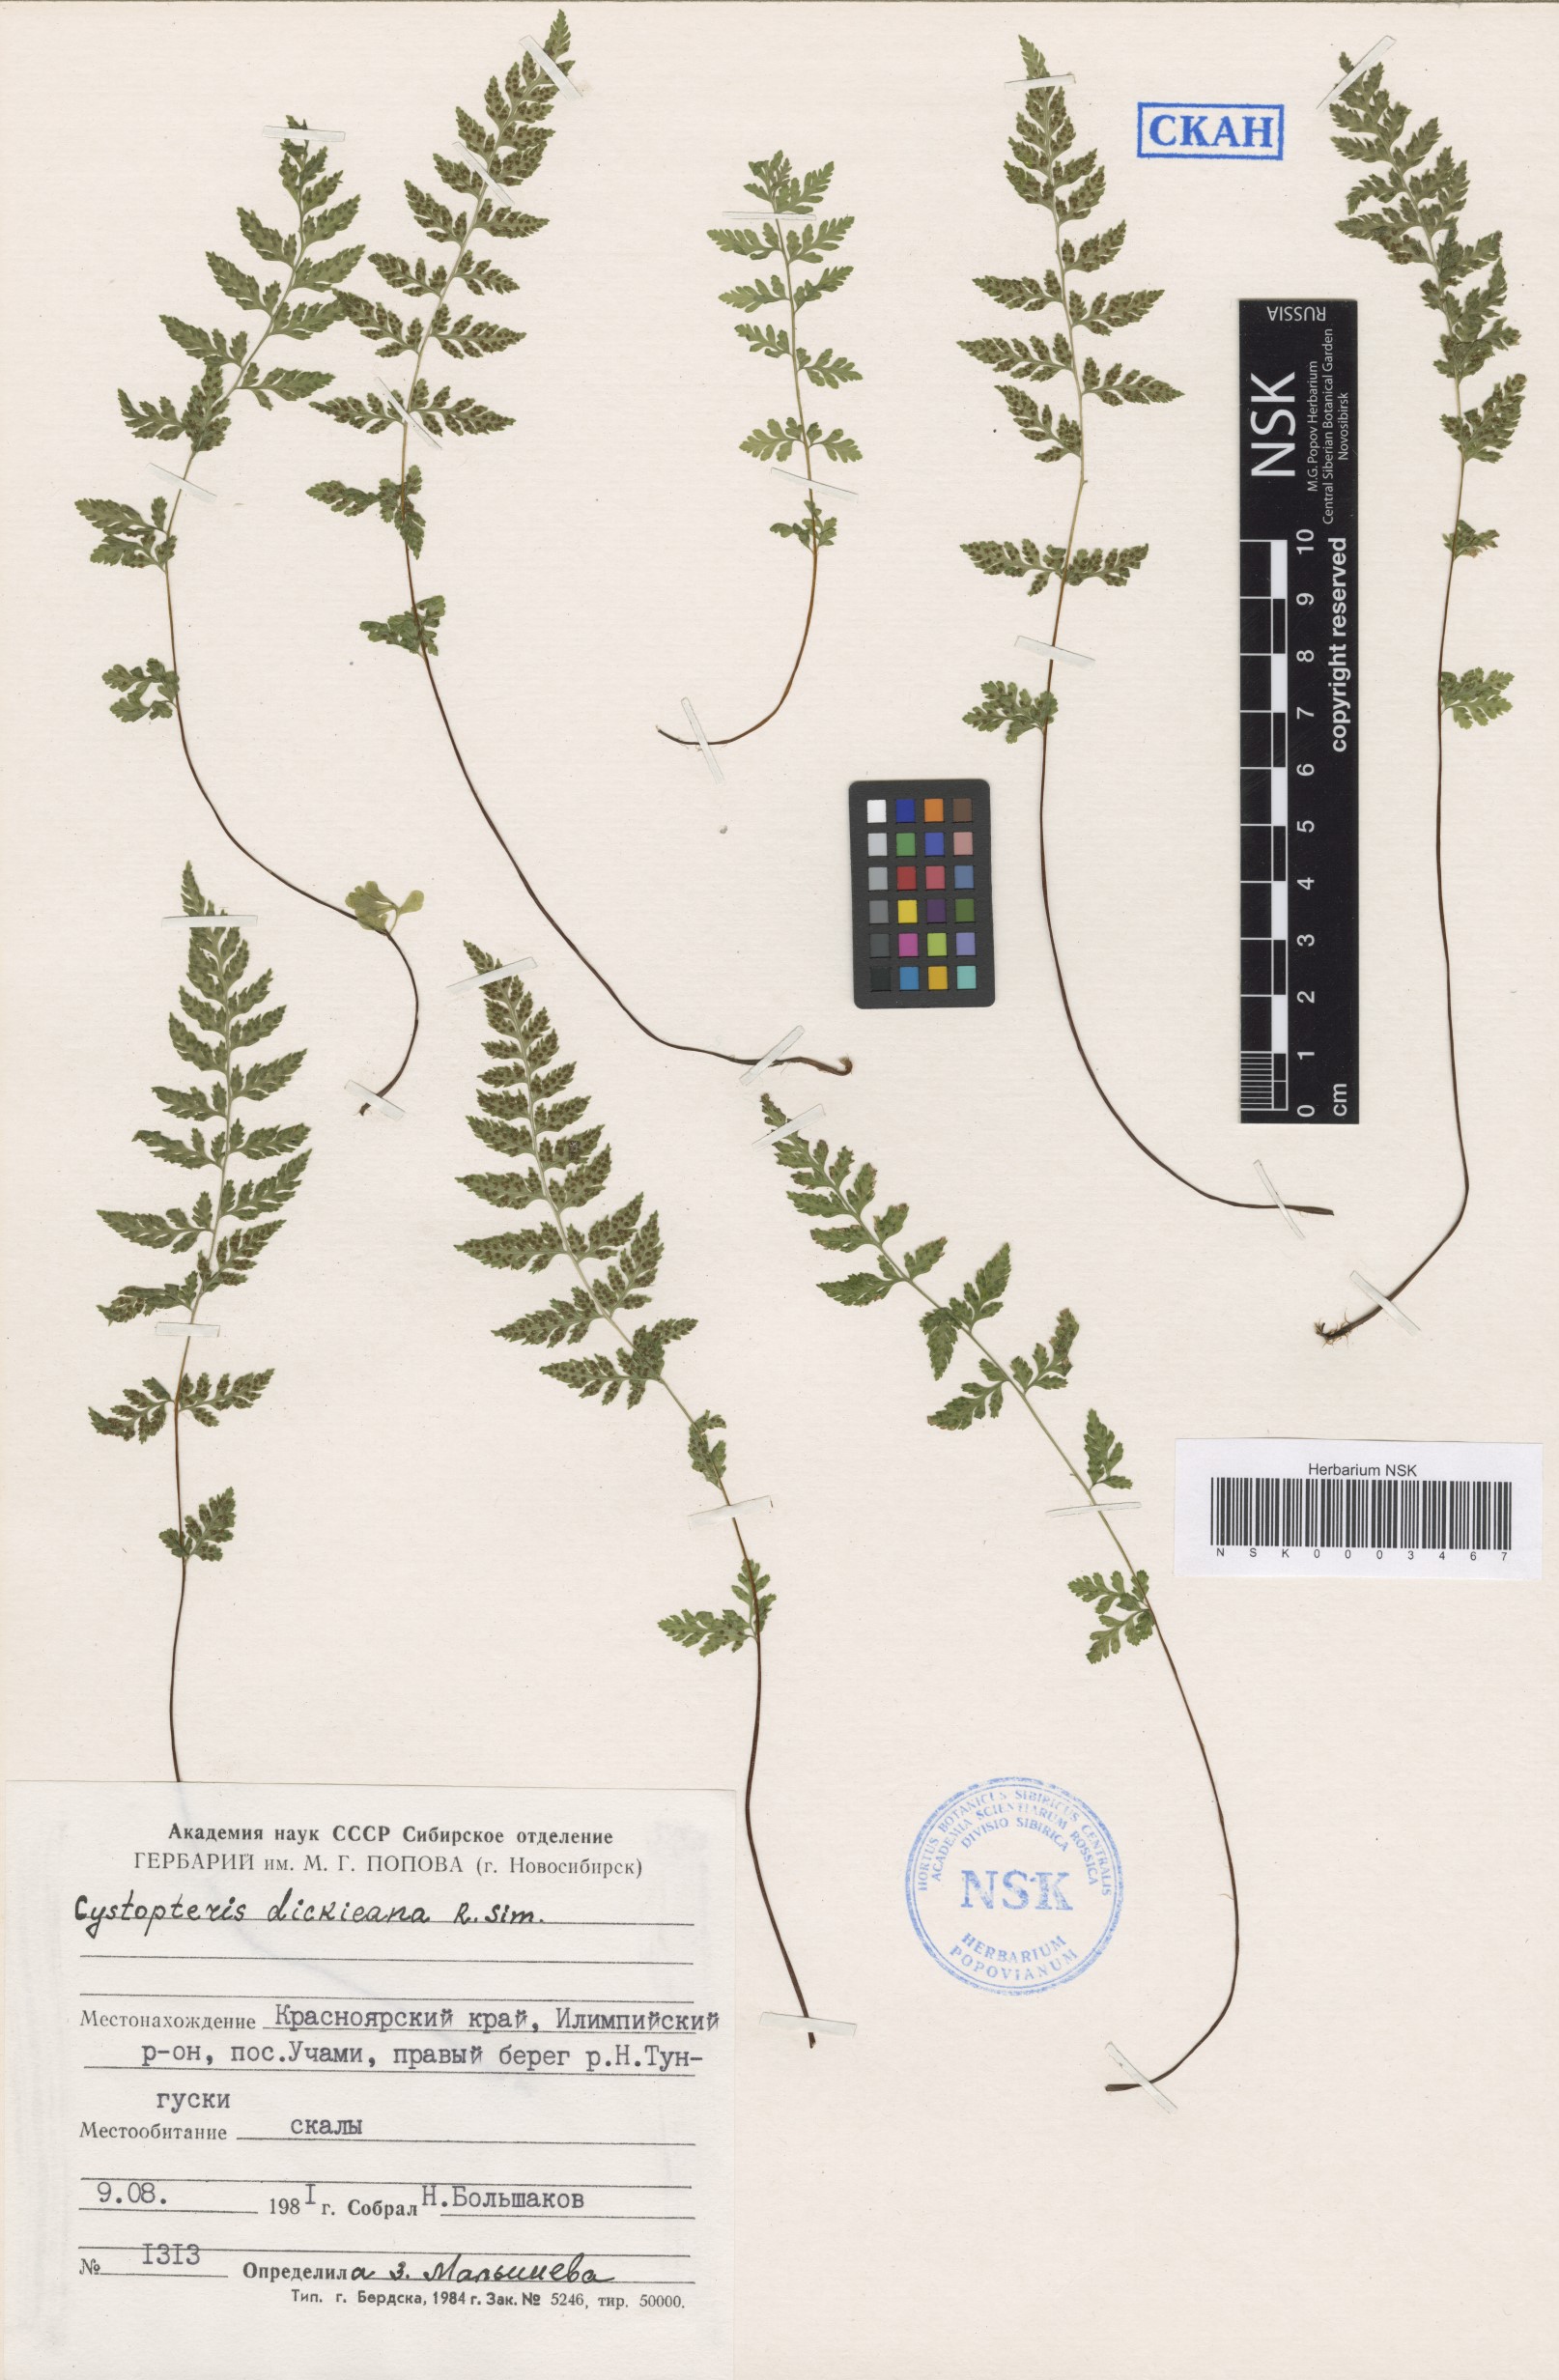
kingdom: Plantae
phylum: Tracheophyta
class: Polypodiopsida
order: Polypodiales
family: Cystopteridaceae
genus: Cystopteris
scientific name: Cystopteris dickieana
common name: Dickie's bladder-fern
